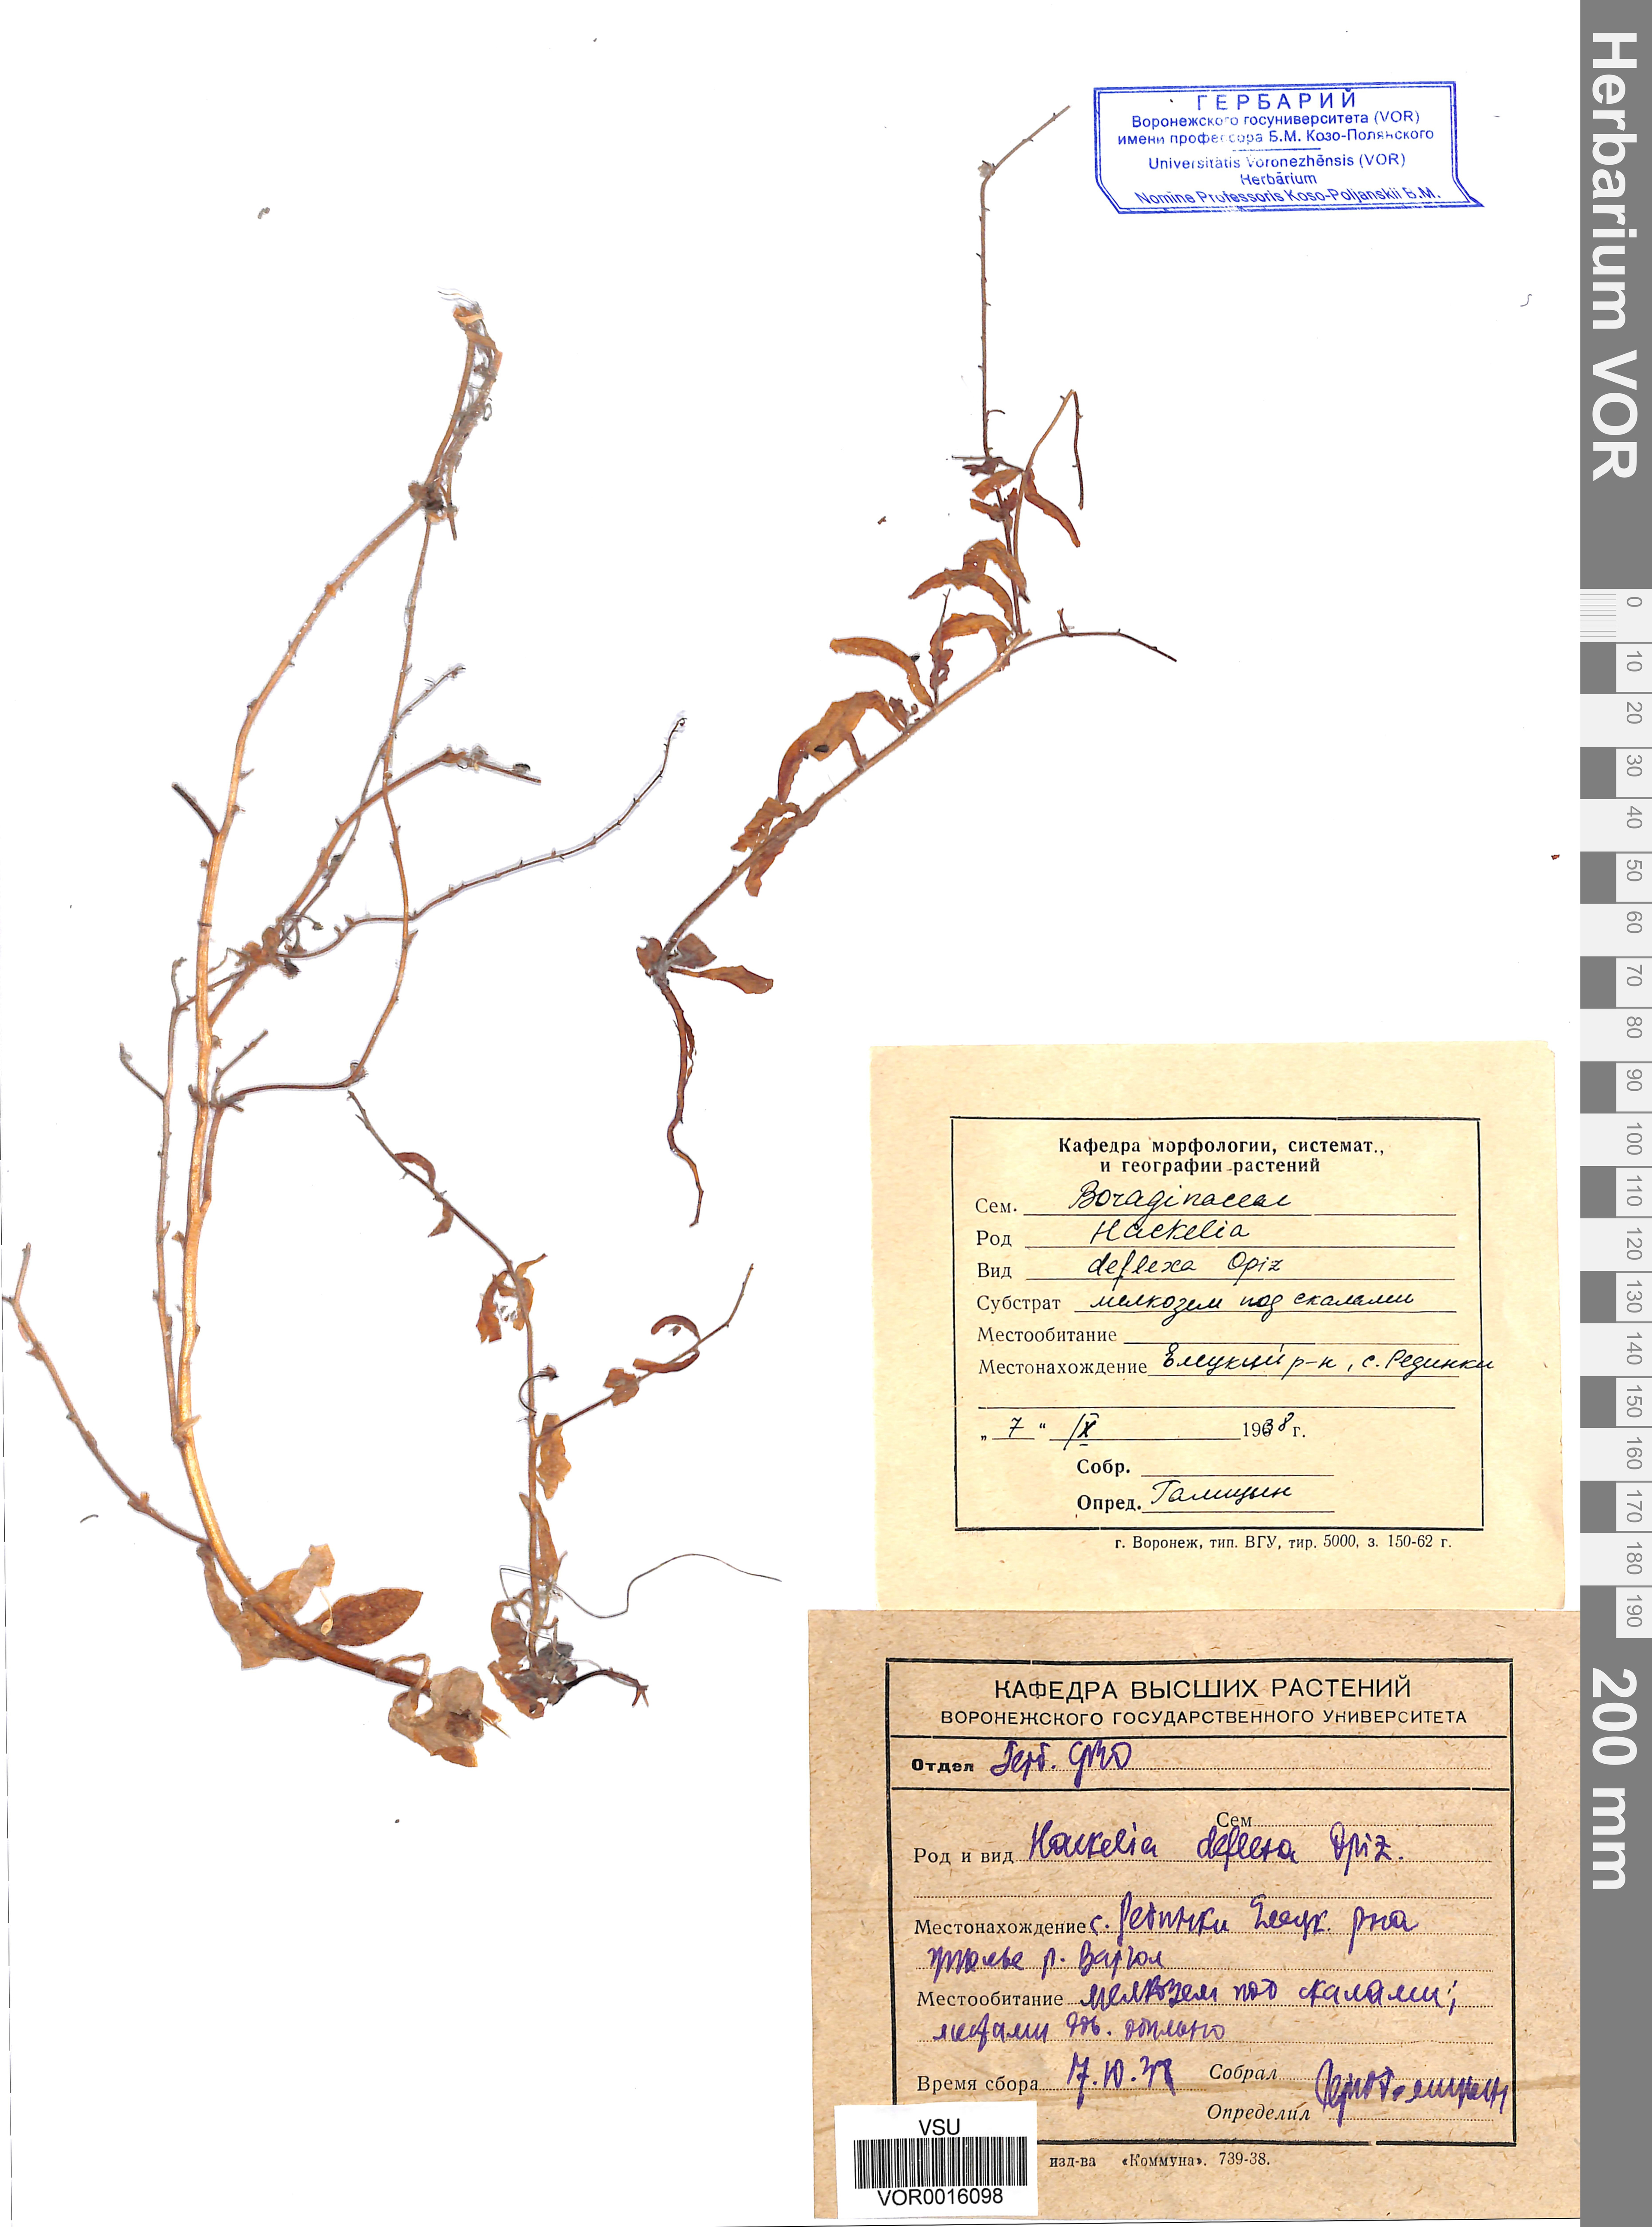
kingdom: Plantae
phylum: Tracheophyta
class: Magnoliopsida
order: Boraginales
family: Boraginaceae
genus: Hackelia
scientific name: Hackelia deflexa
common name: Nodding stickseed
